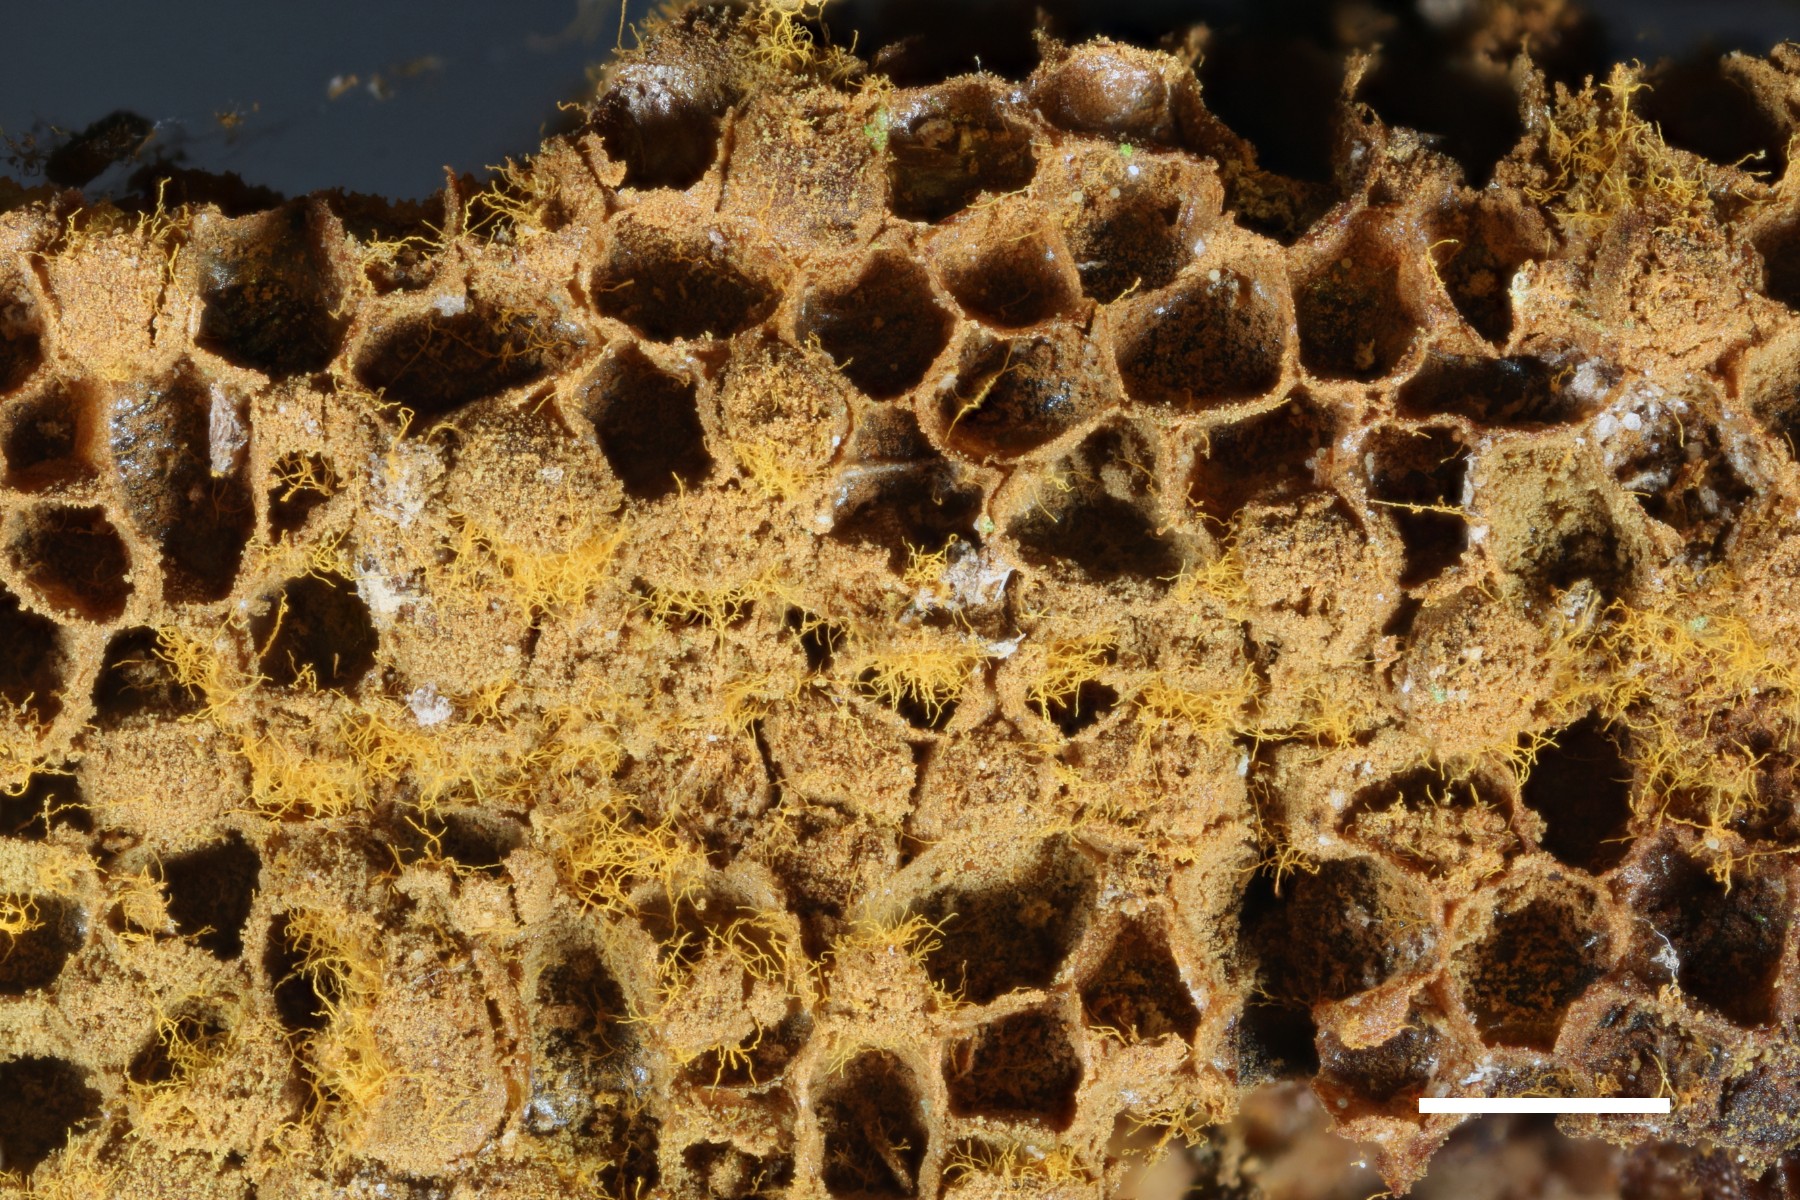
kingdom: Protozoa
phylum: Mycetozoa
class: Myxomycetes
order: Trichiales
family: Trichiaceae
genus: Trichia
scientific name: Trichia scabra
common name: tæppe-hårbold
